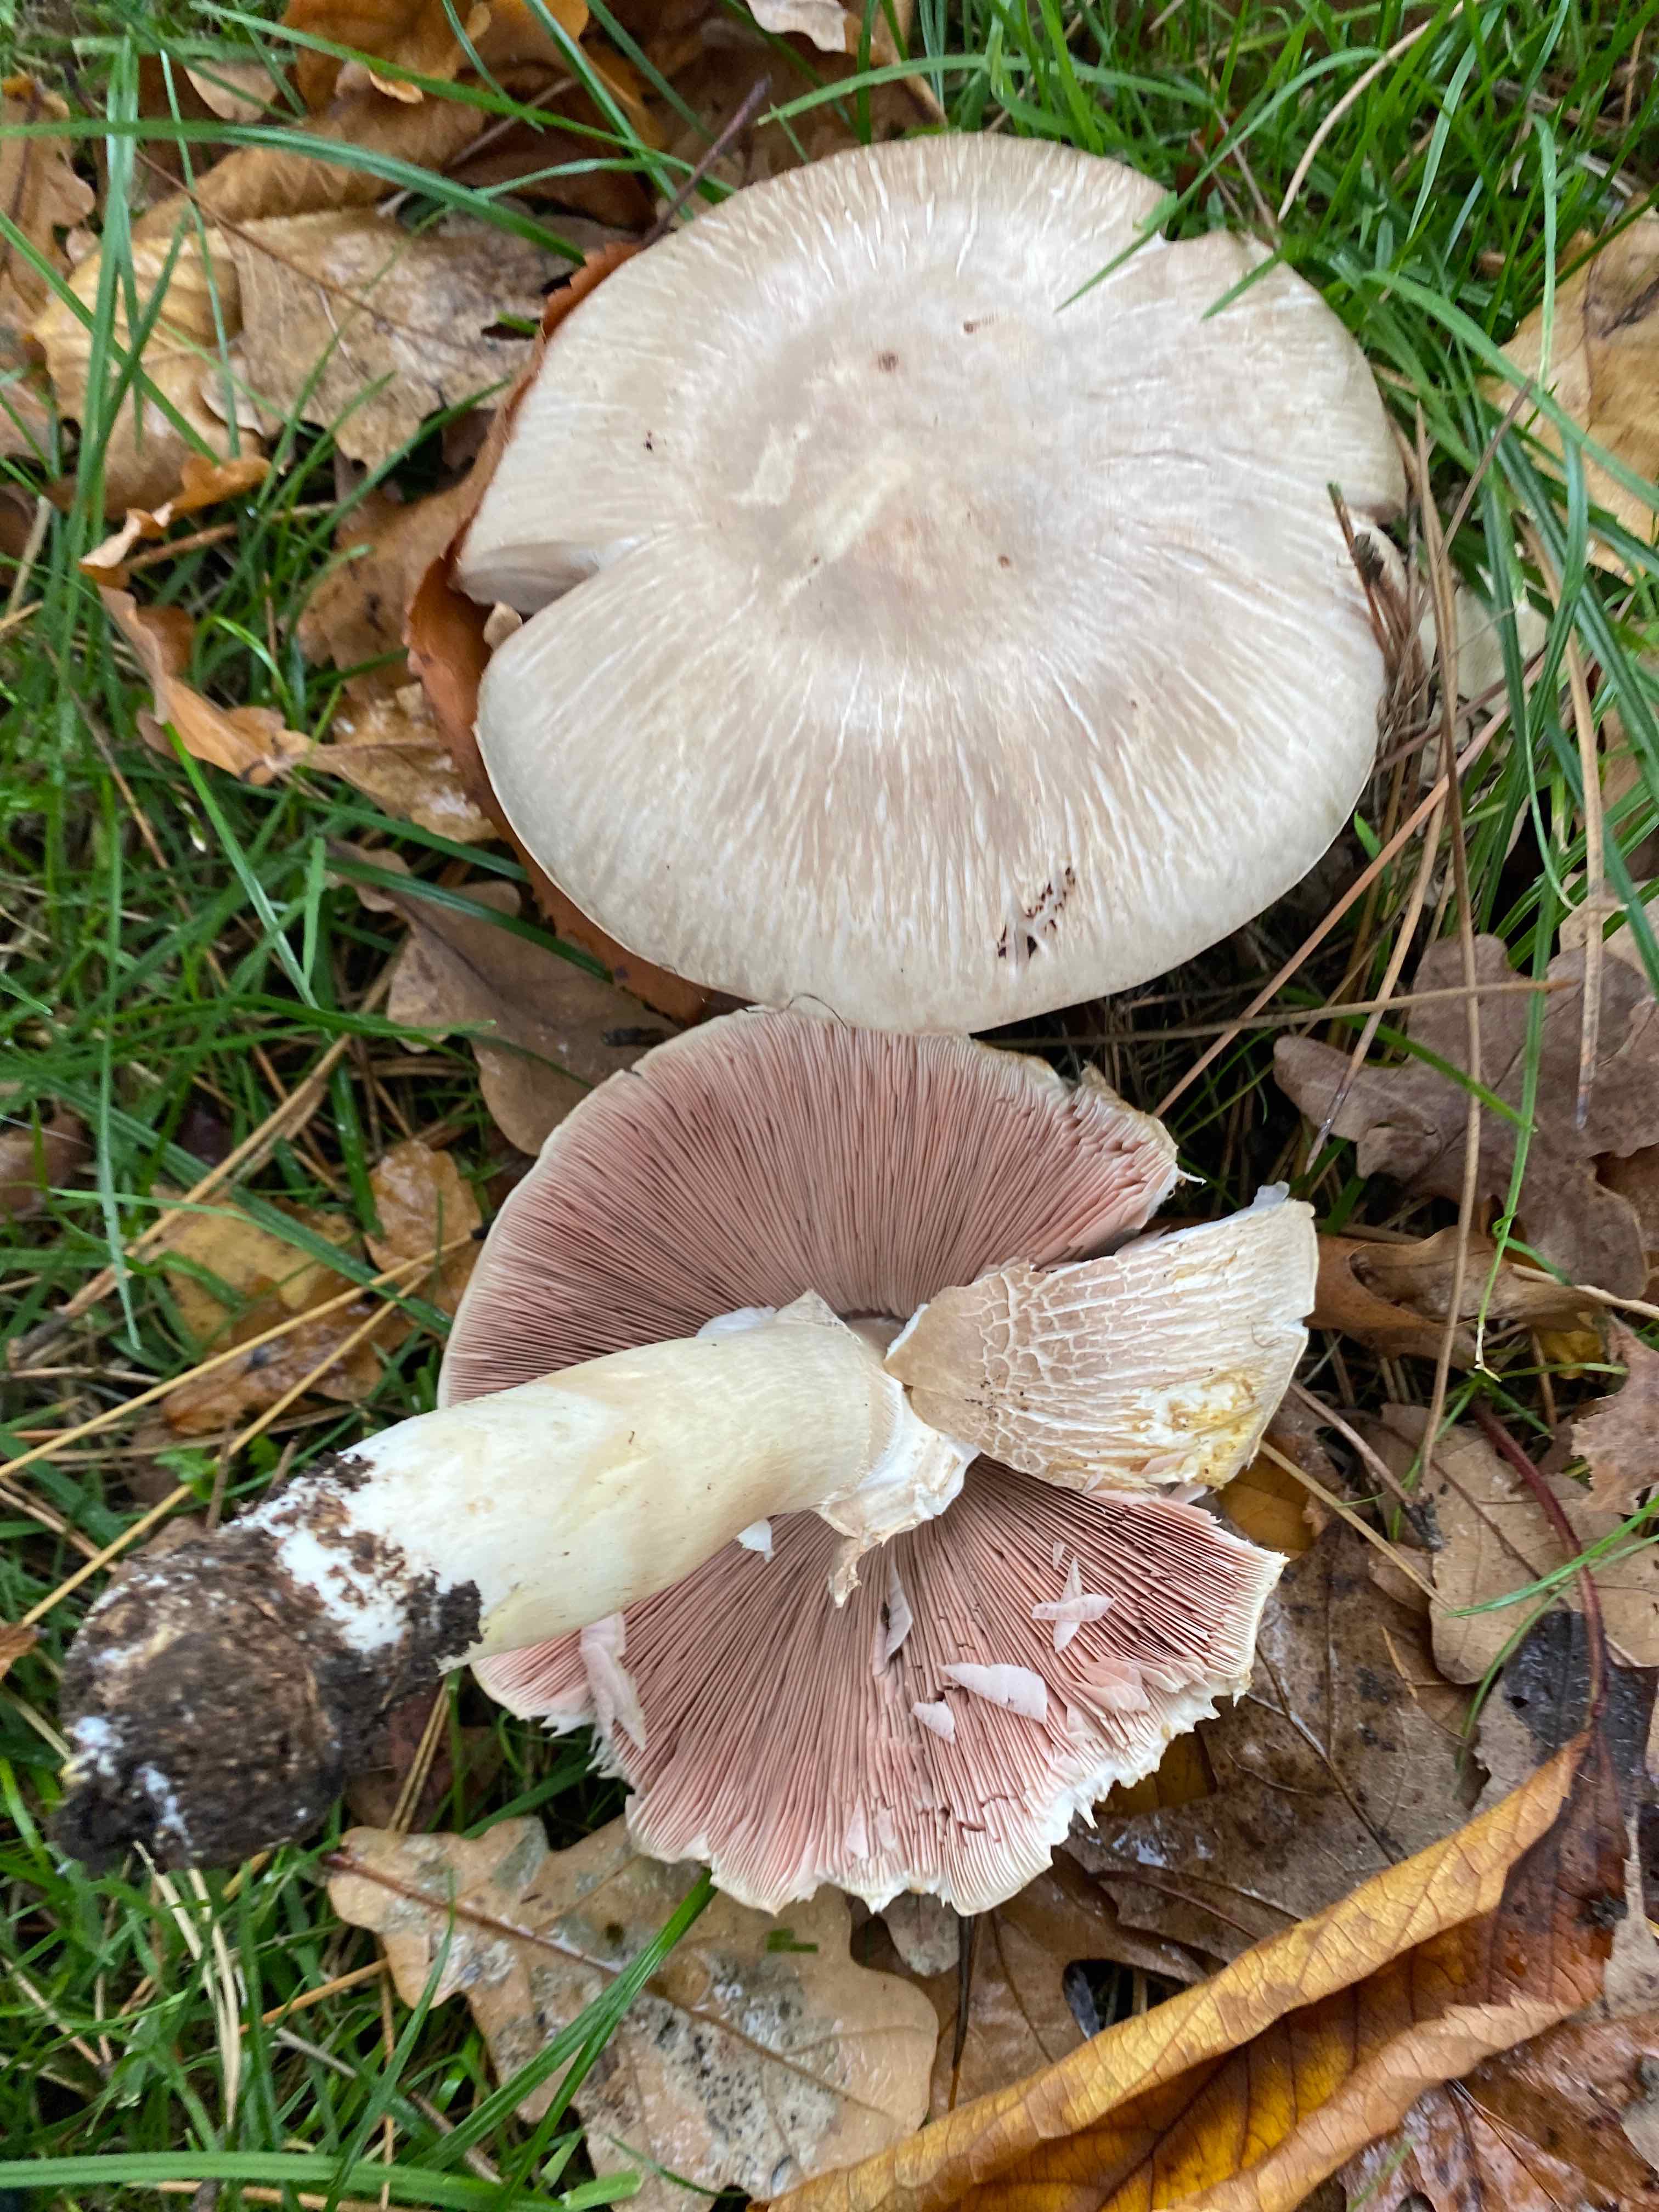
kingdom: Fungi
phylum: Basidiomycota
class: Agaricomycetes
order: Agaricales
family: Agaricaceae
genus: Agaricus
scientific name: Agaricus xanthodermus
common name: karbol-champignon
